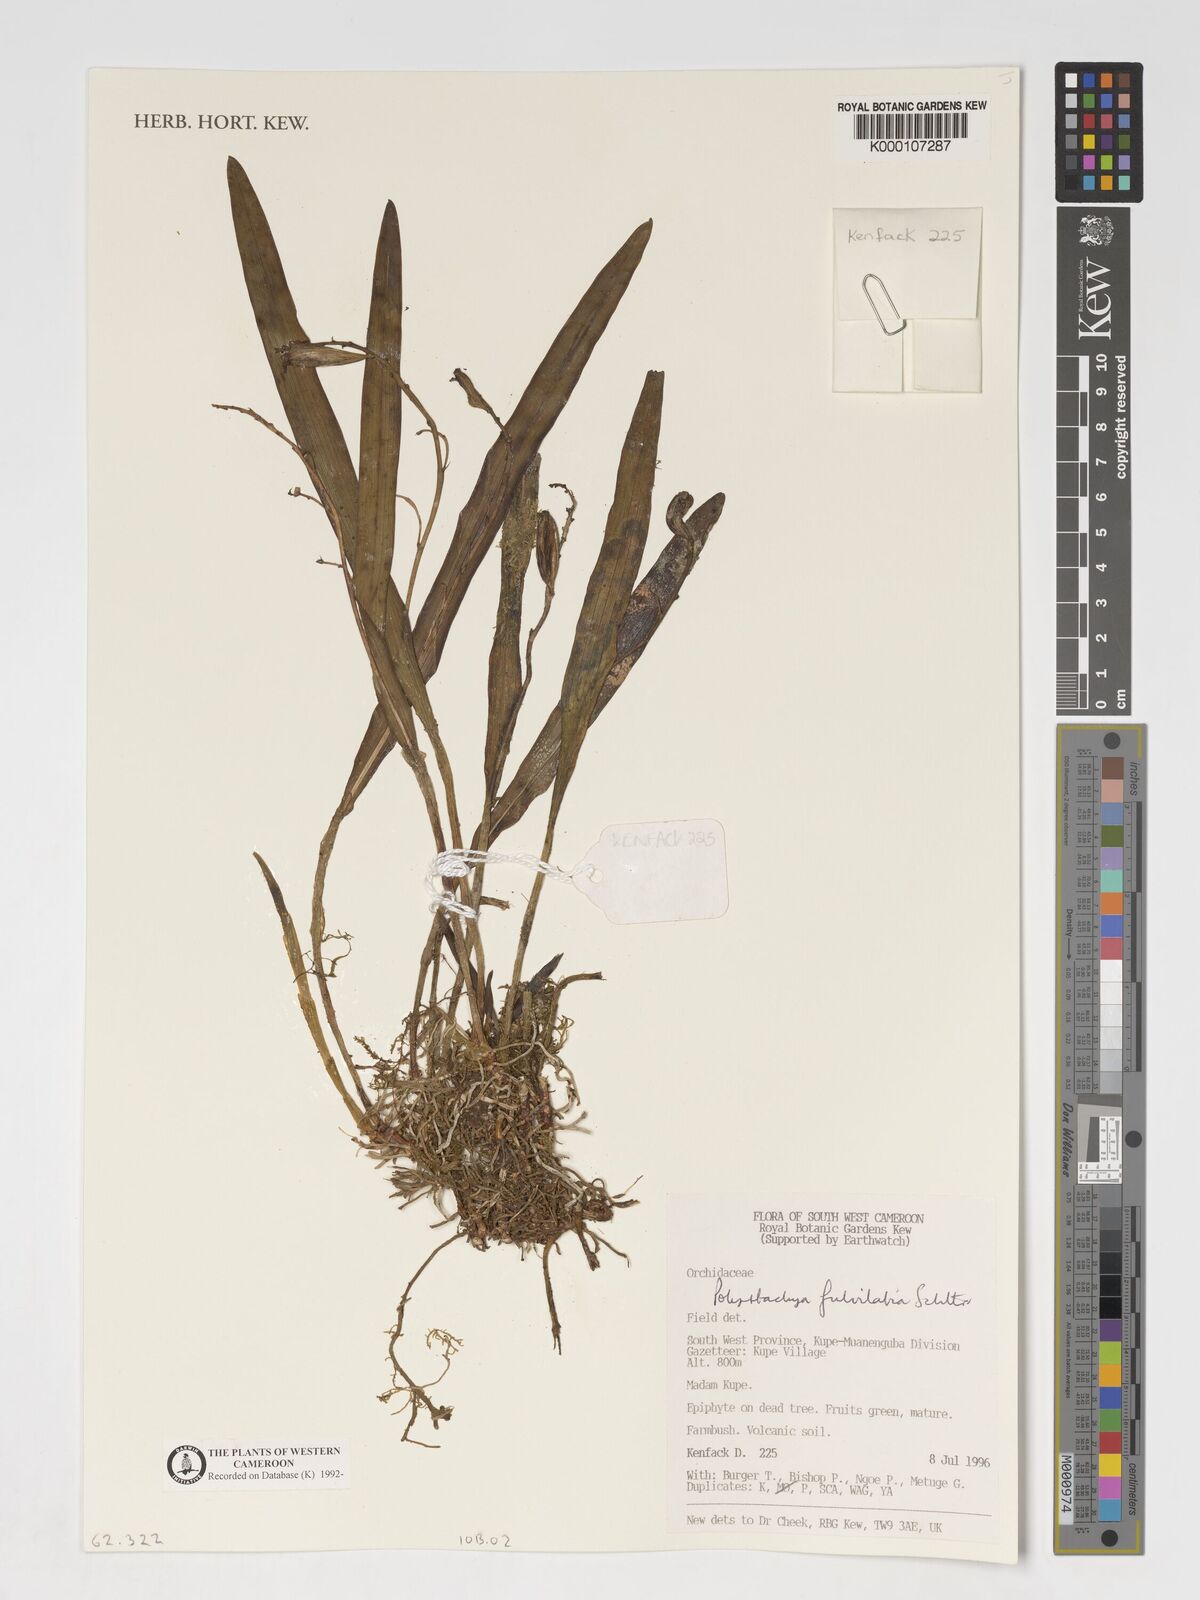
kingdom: Plantae
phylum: Tracheophyta
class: Liliopsida
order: Asparagales
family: Orchidaceae
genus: Polystachya
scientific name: Polystachya fulvilabia
